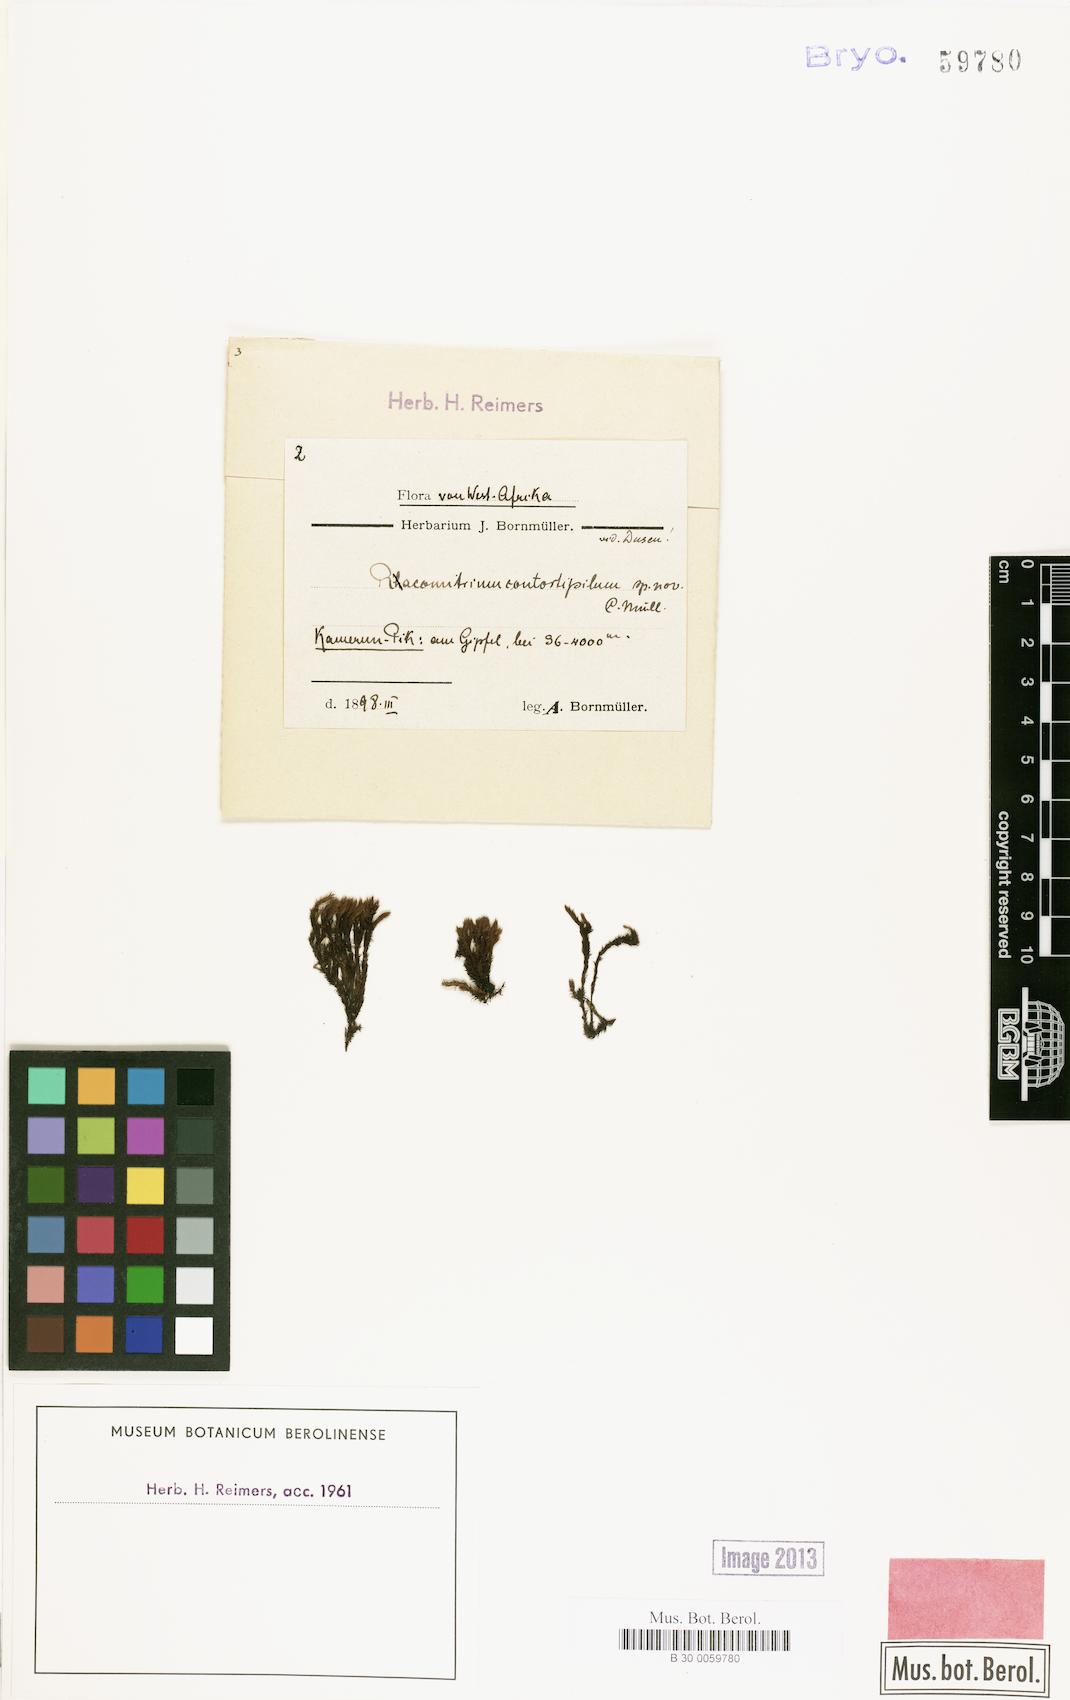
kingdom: Plantae
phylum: Bryophyta
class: Bryopsida
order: Grimmiales
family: Grimmiaceae
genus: Racomitrium
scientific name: Racomitrium
